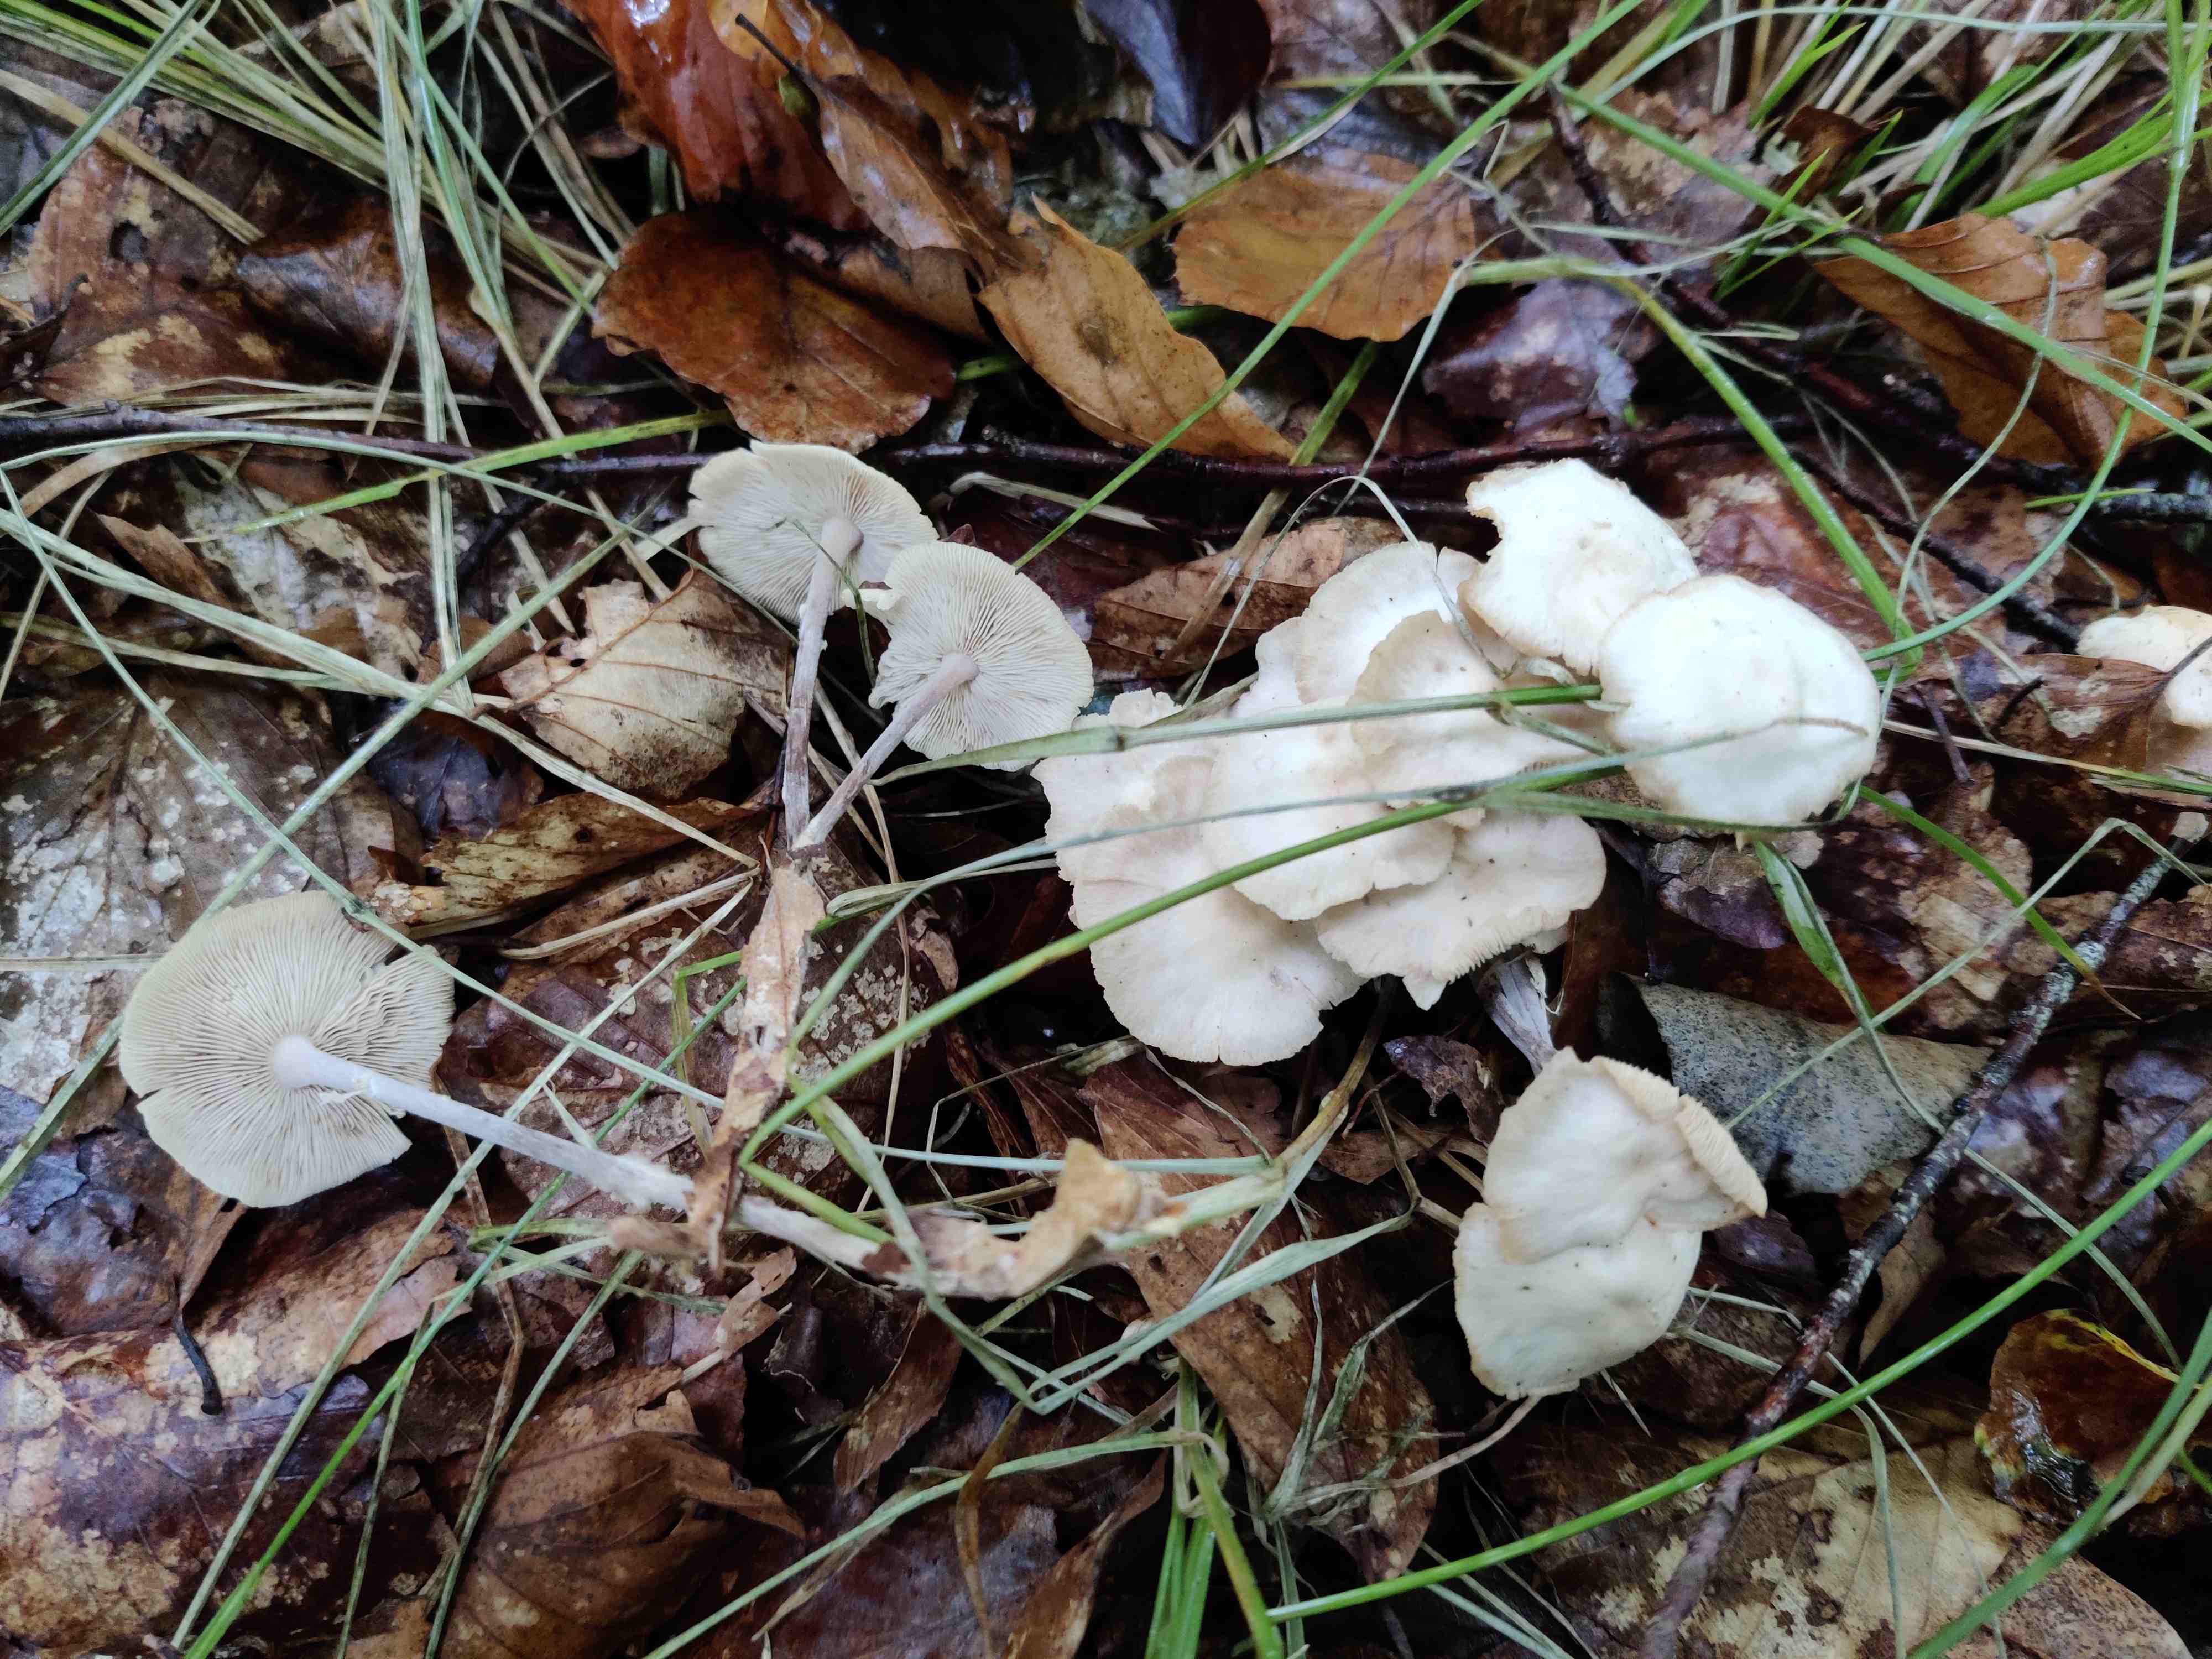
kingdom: Fungi
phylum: Basidiomycota
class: Agaricomycetes
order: Agaricales
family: Omphalotaceae
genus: Collybiopsis
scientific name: Collybiopsis confluens
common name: knippe-fladhat
